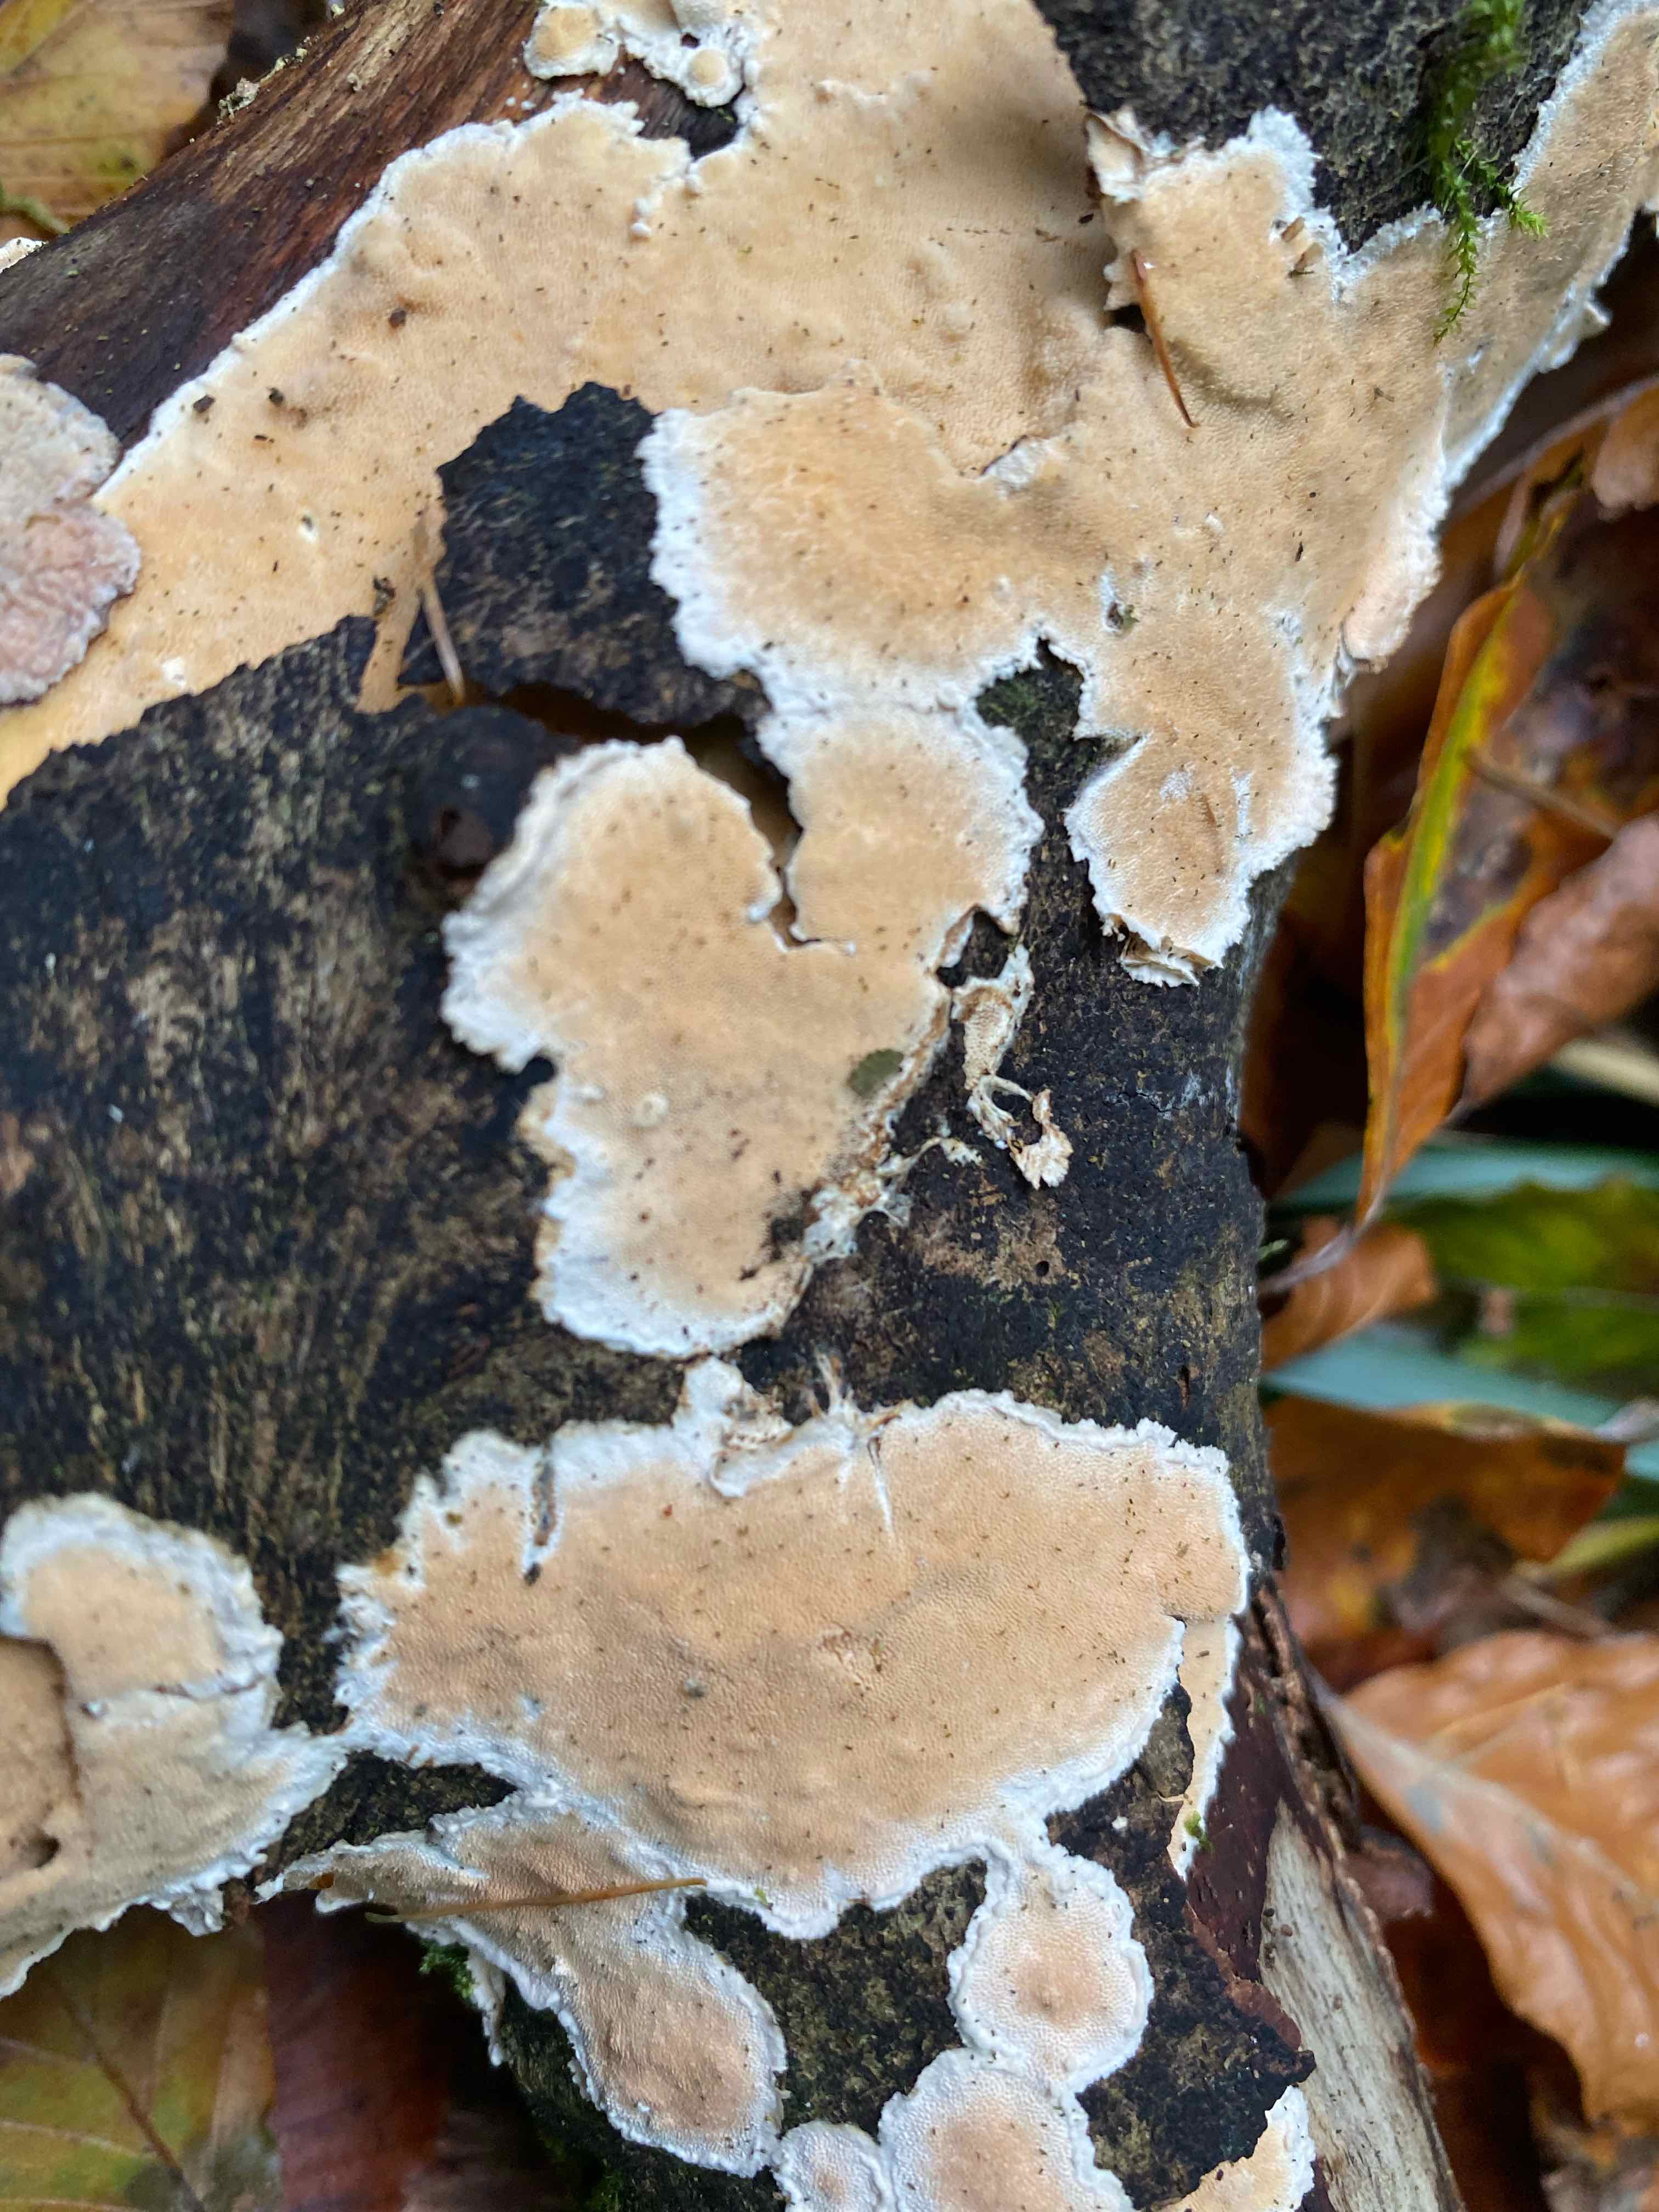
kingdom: Fungi
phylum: Basidiomycota
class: Agaricomycetes
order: Corticiales
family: Corticiaceae
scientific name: Corticiaceae
